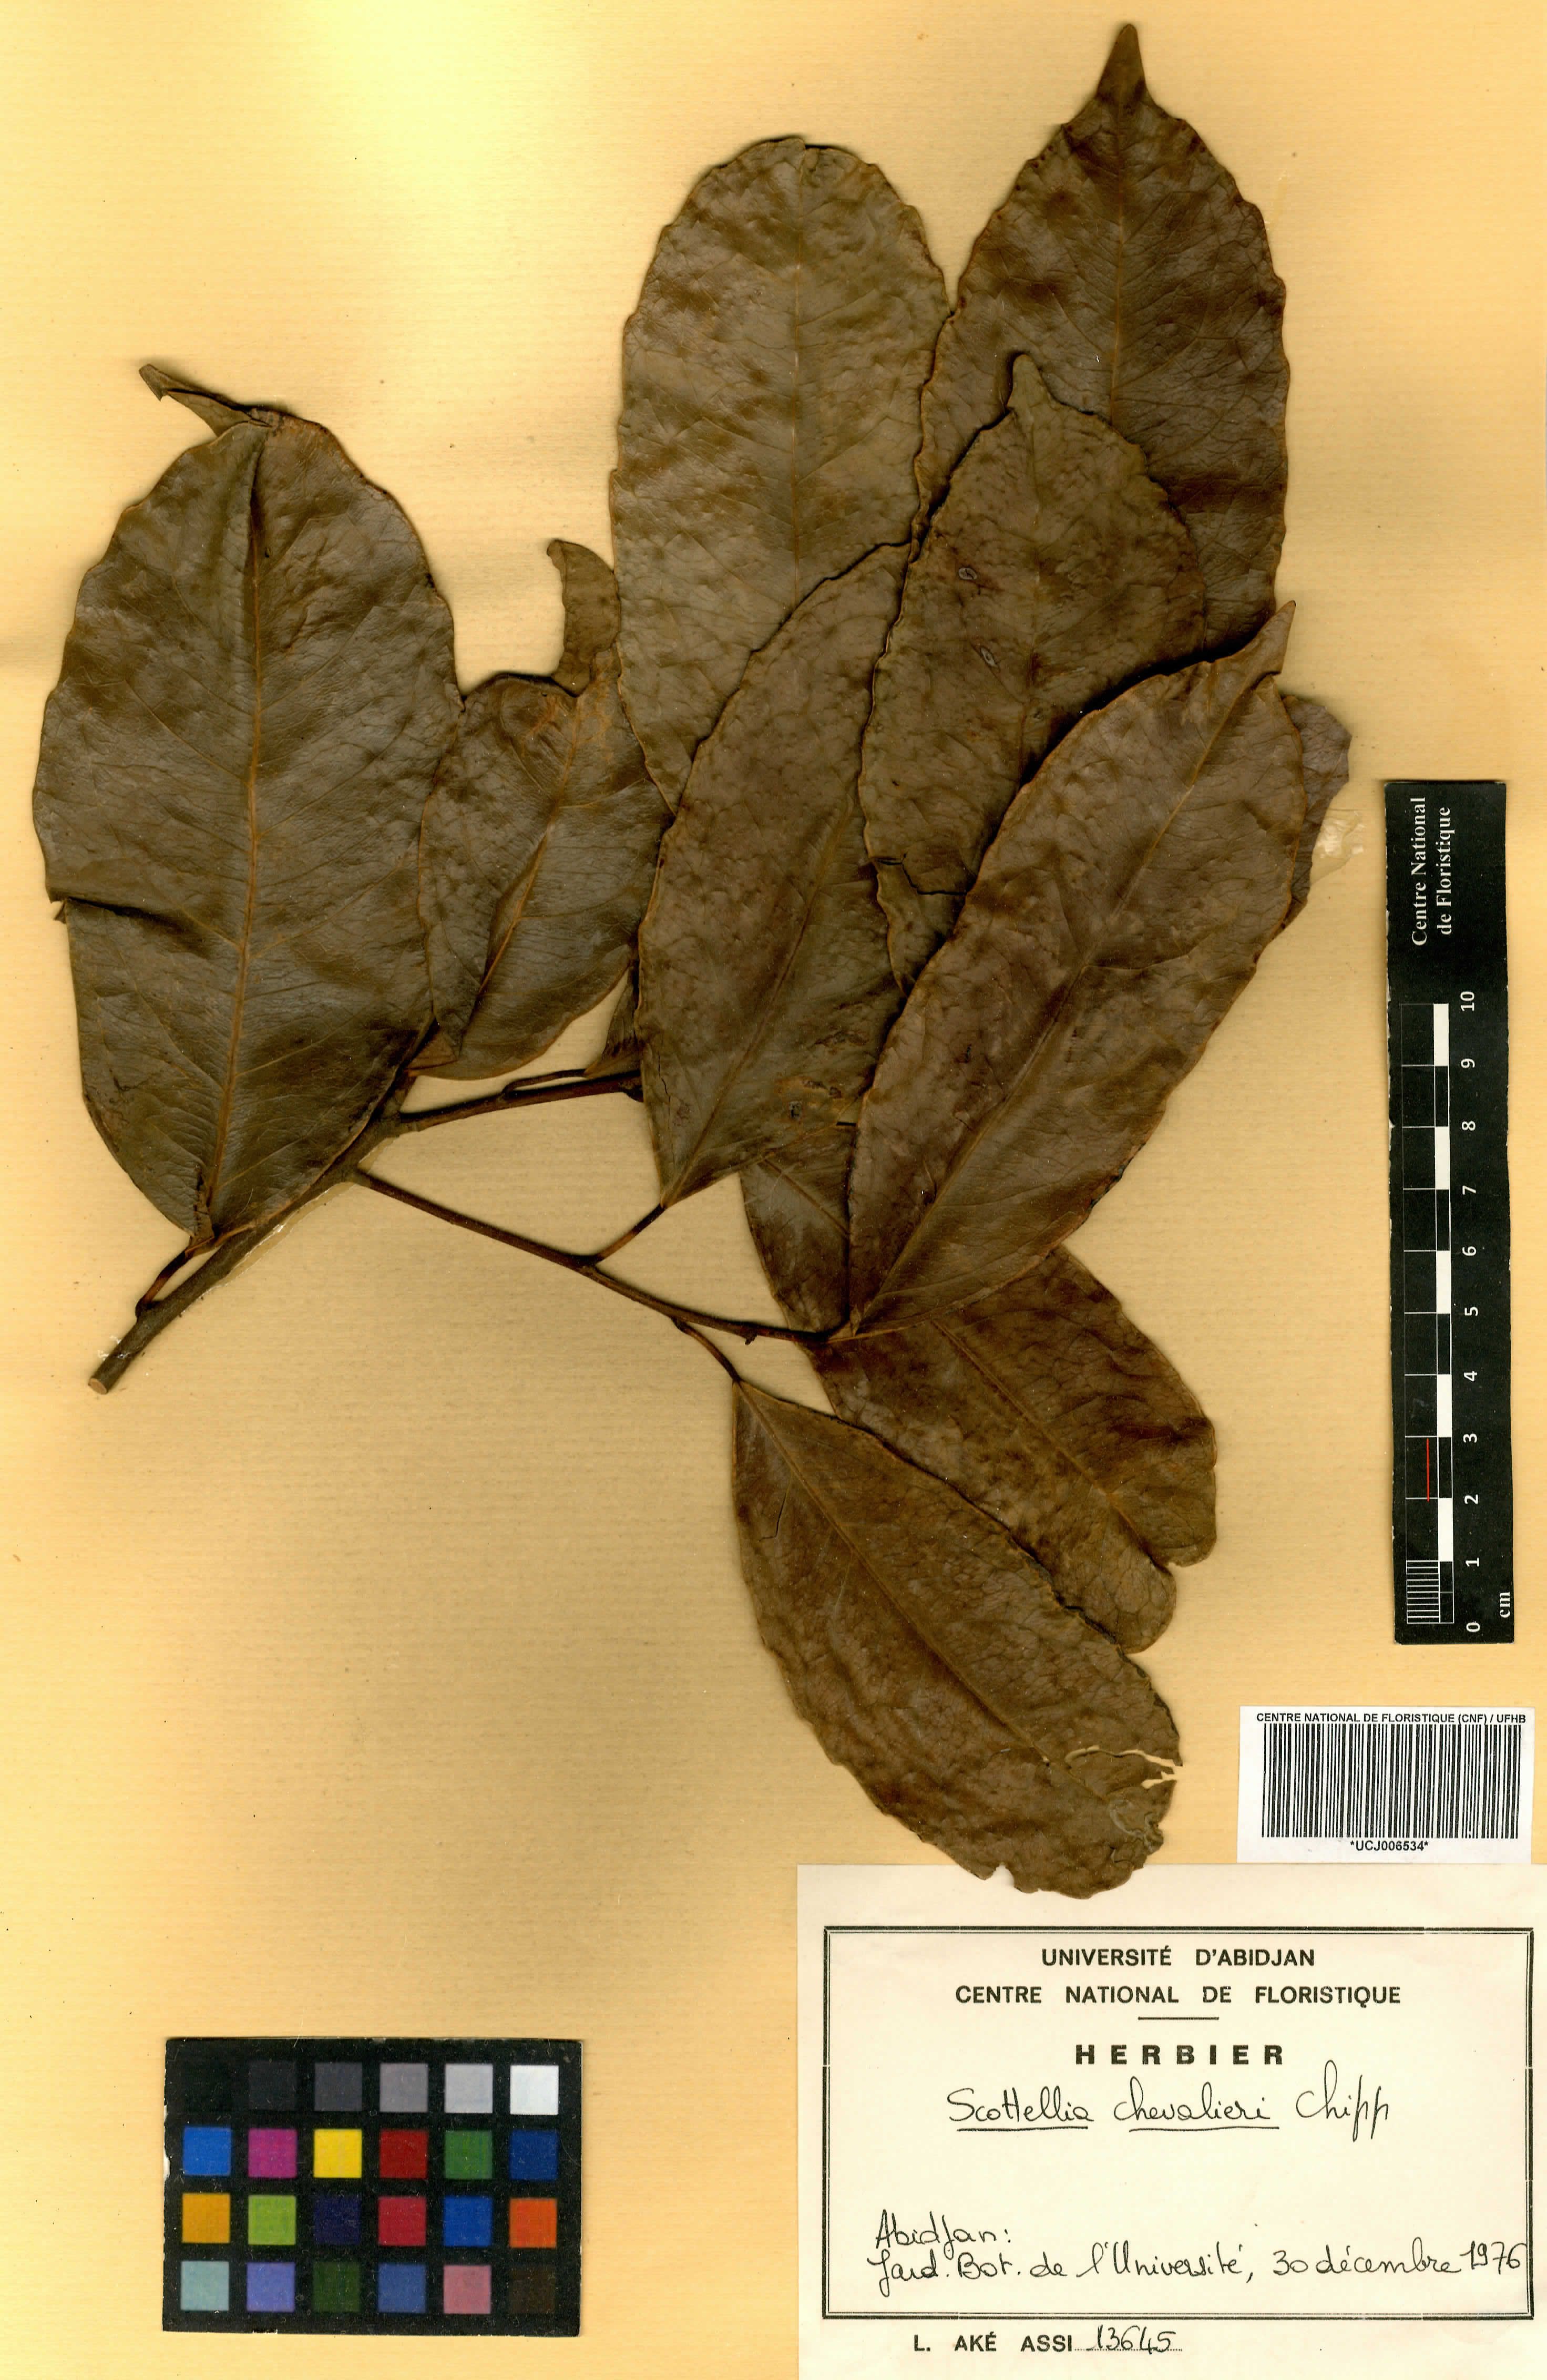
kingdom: Plantae
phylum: Tracheophyta
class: Magnoliopsida
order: Malpighiales
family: Achariaceae
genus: Scottellia
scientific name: Scottellia klaineana
